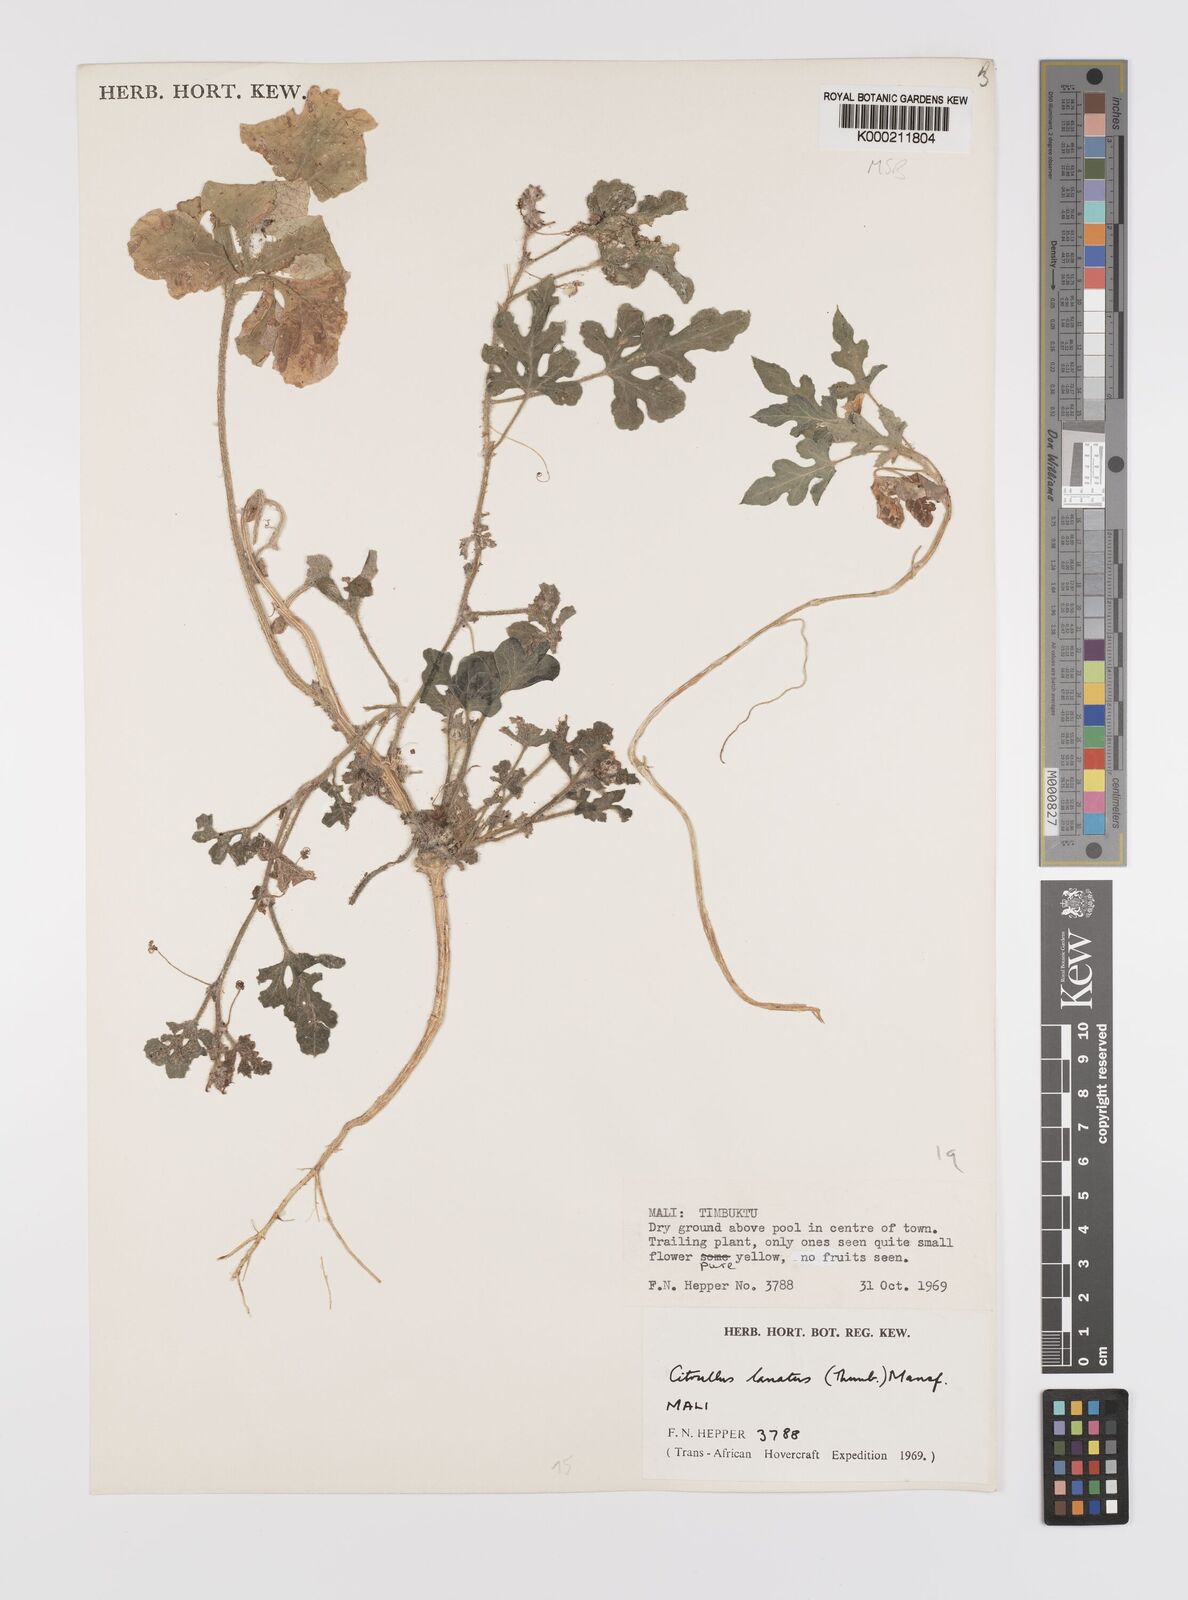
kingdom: Plantae
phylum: Tracheophyta
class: Magnoliopsida
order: Cucurbitales
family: Cucurbitaceae
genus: Citrullus
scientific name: Citrullus lanatus
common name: Watermelon
